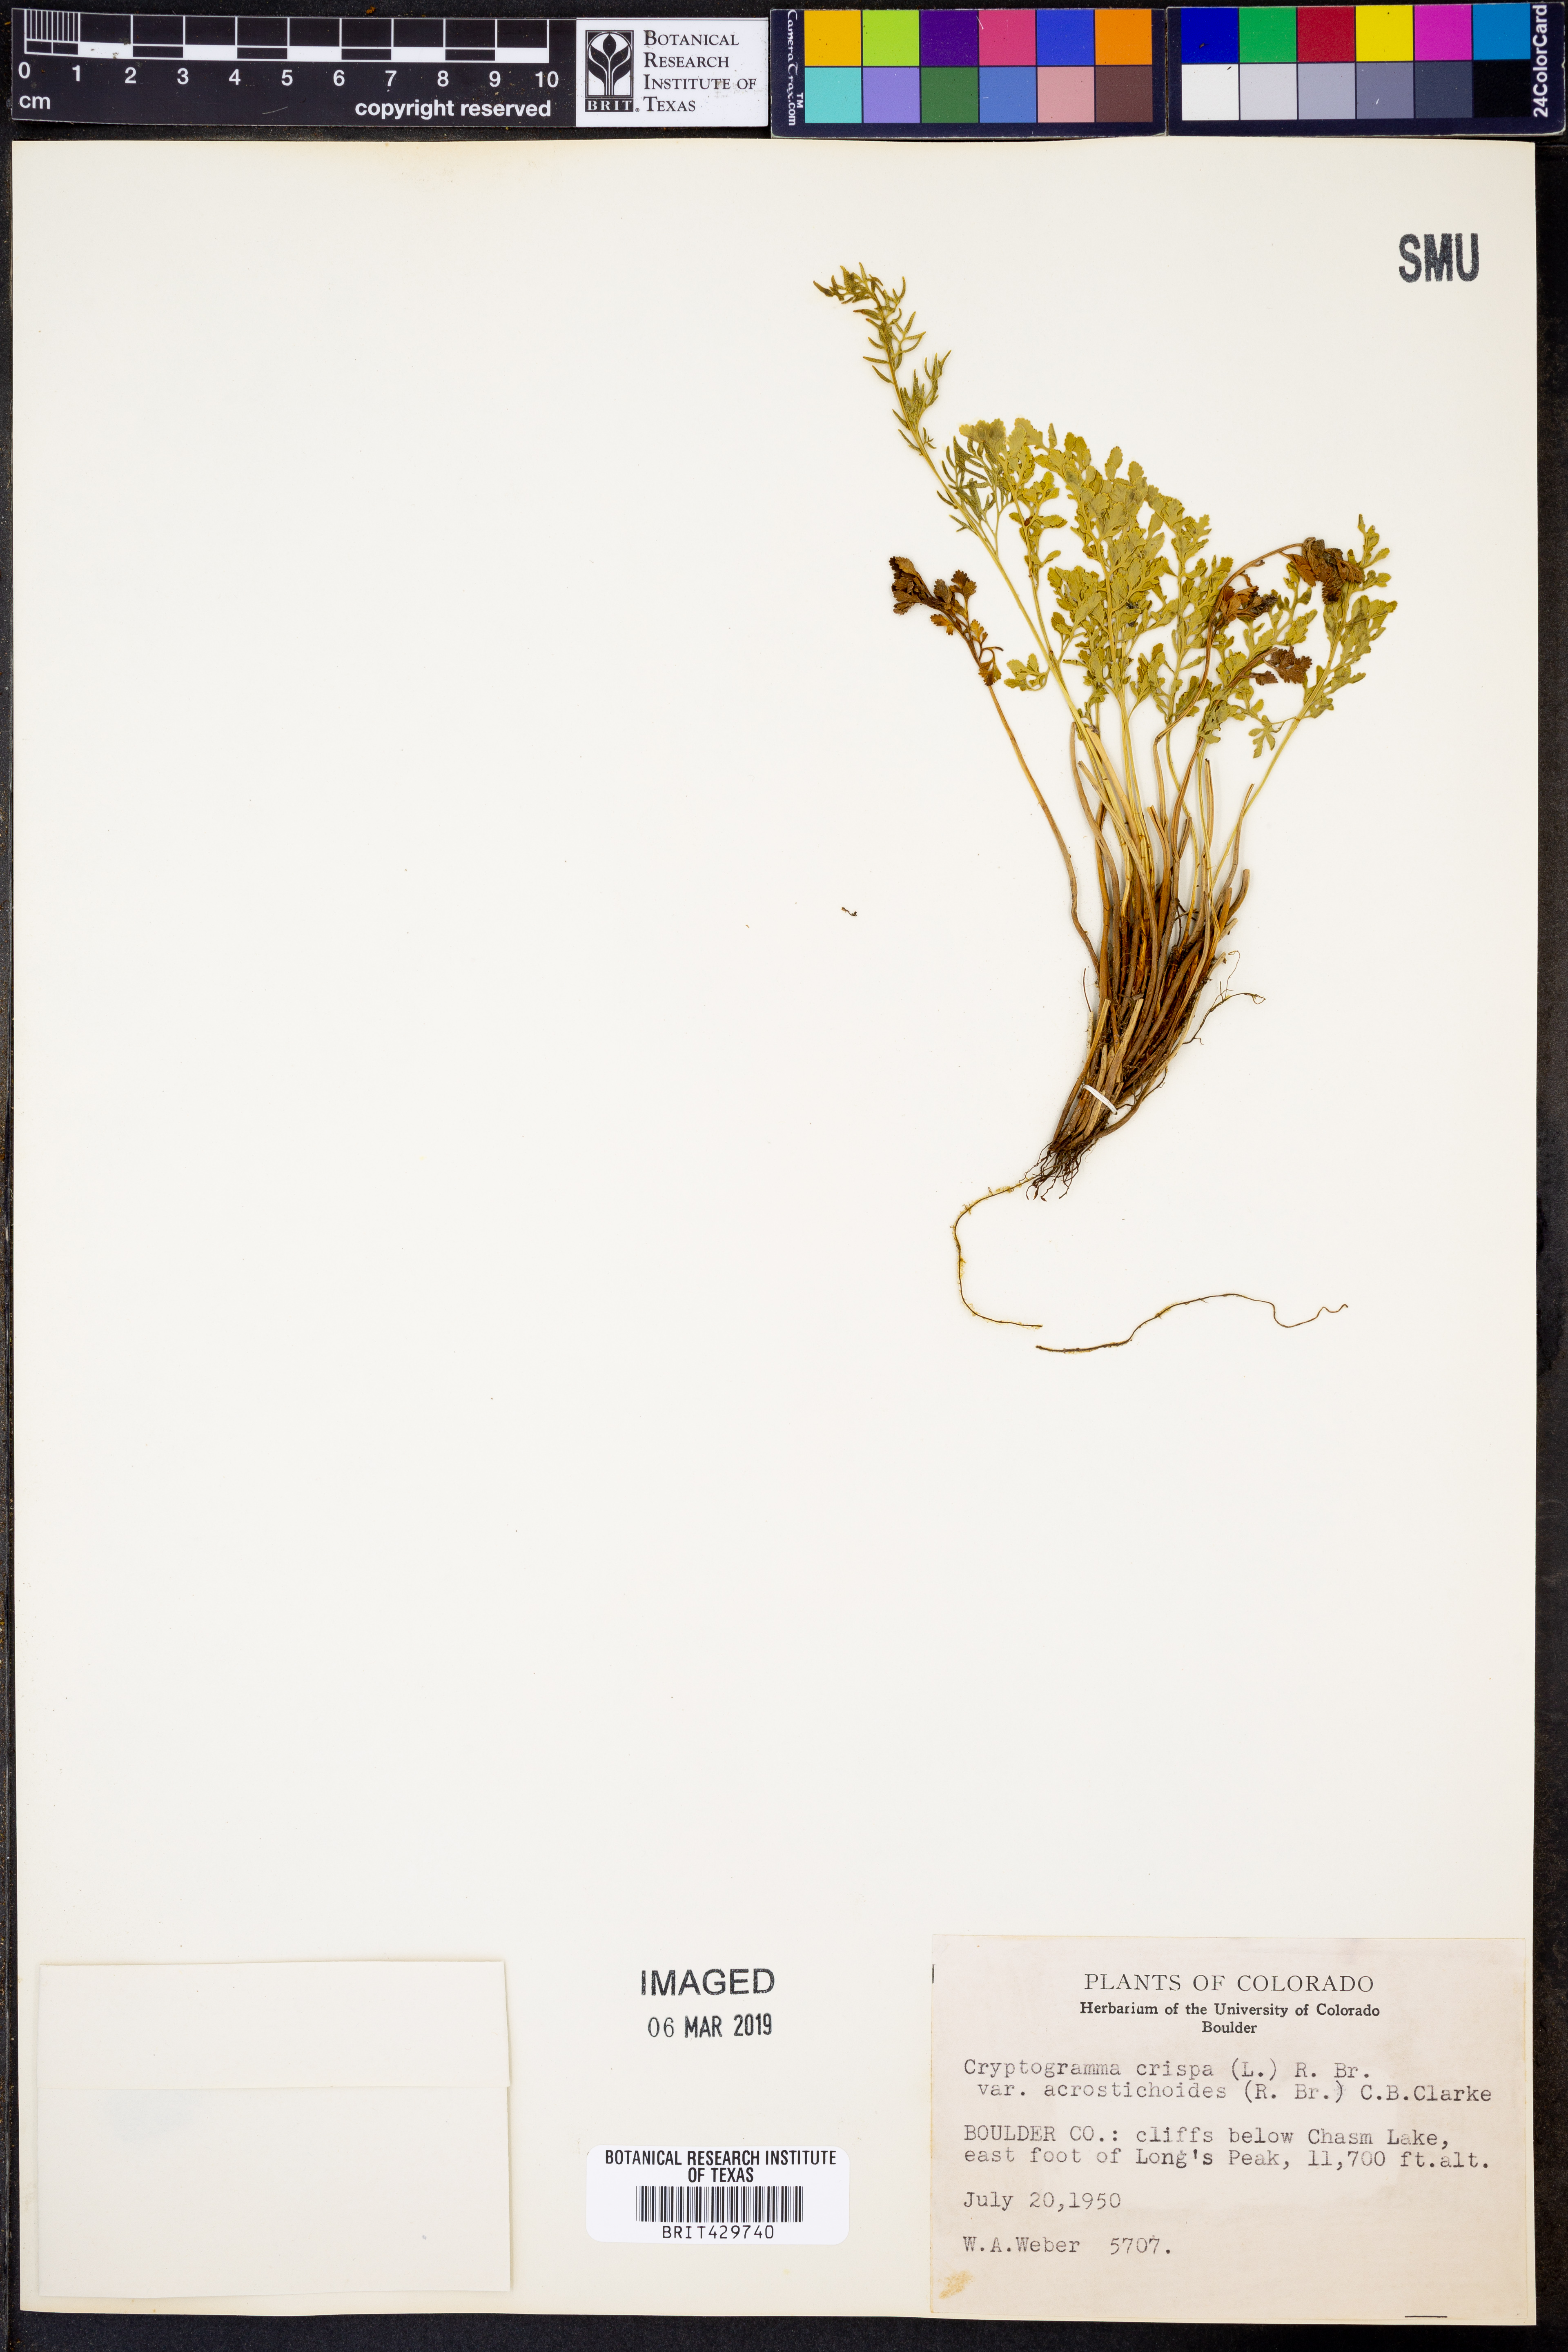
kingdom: Plantae
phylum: Tracheophyta
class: Polypodiopsida
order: Polypodiales
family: Pteridaceae
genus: Cryptogramma
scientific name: Cryptogramma acrostichoides
